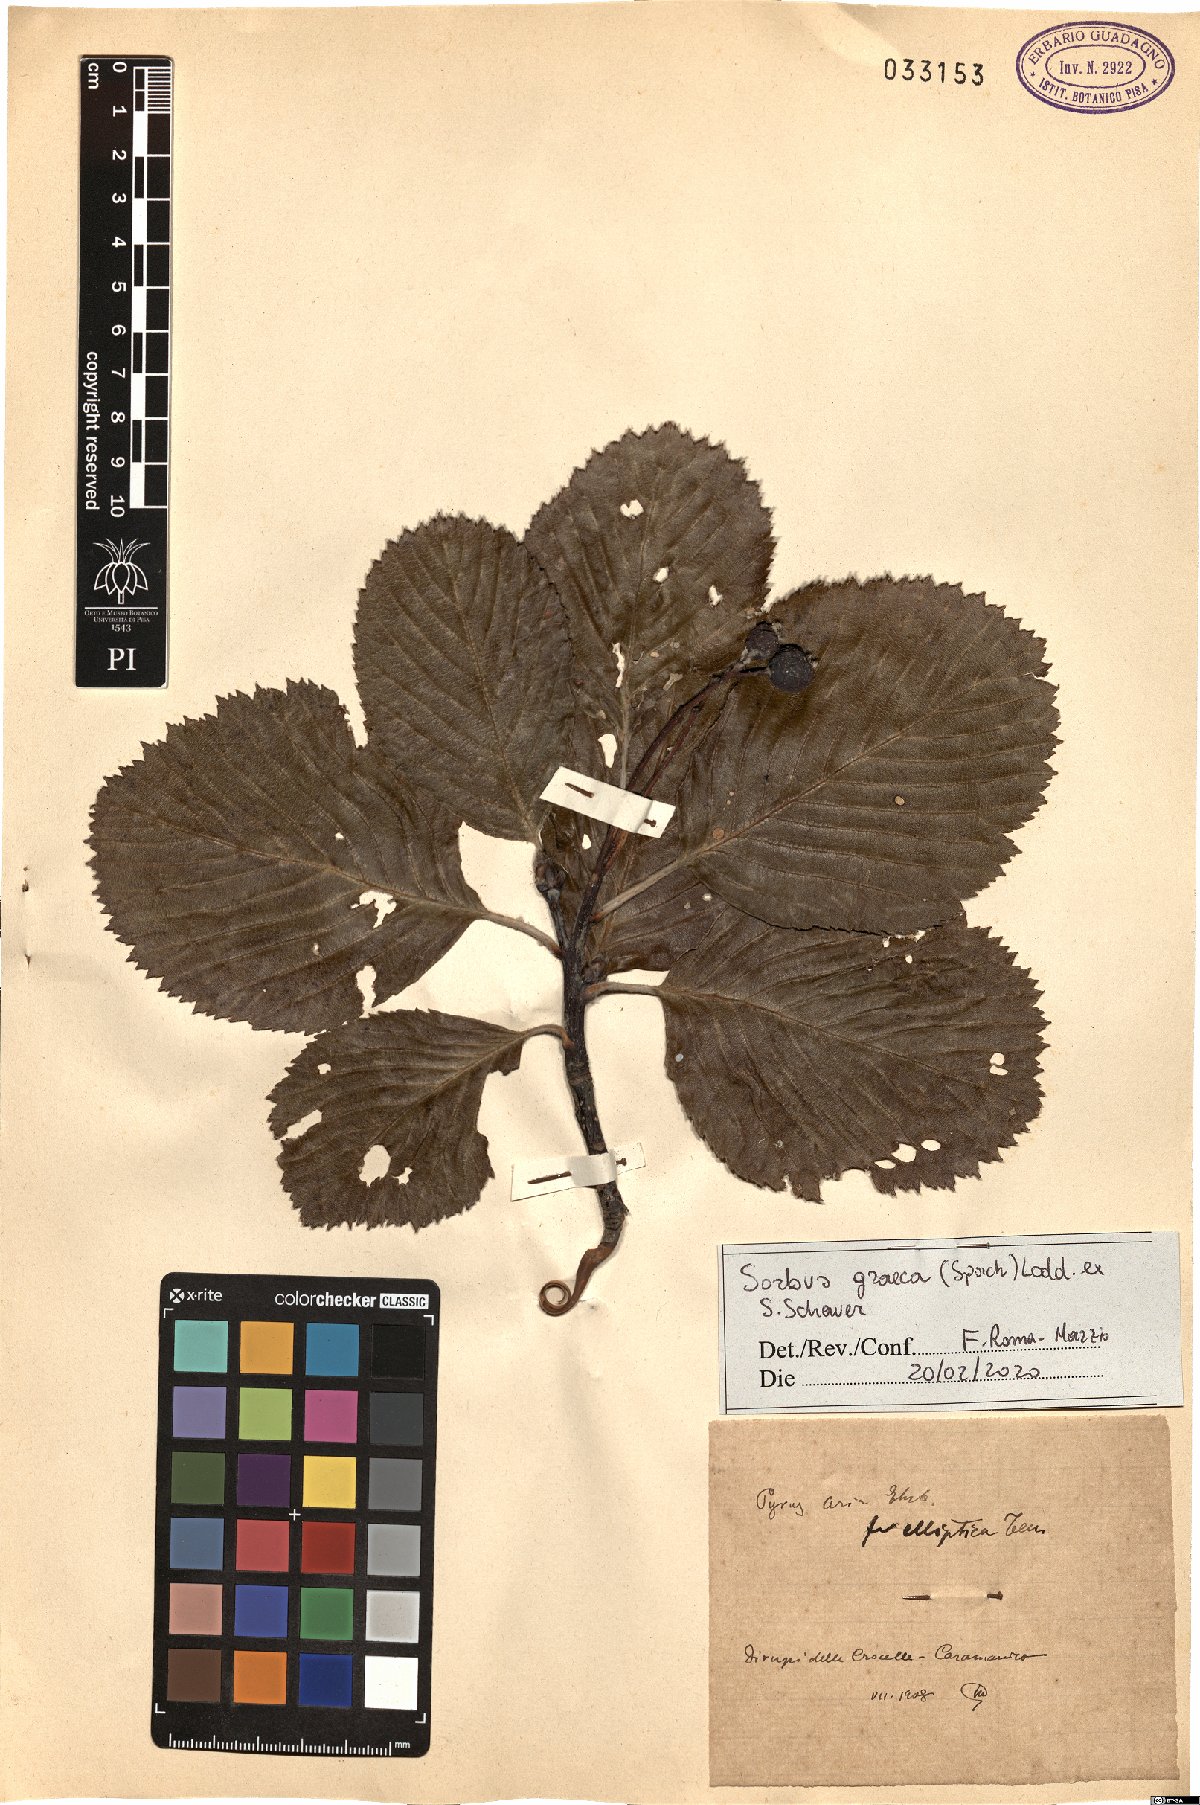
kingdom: Plantae
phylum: Tracheophyta
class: Magnoliopsida
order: Rosales
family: Rosaceae
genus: Aria
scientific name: Aria graeca
